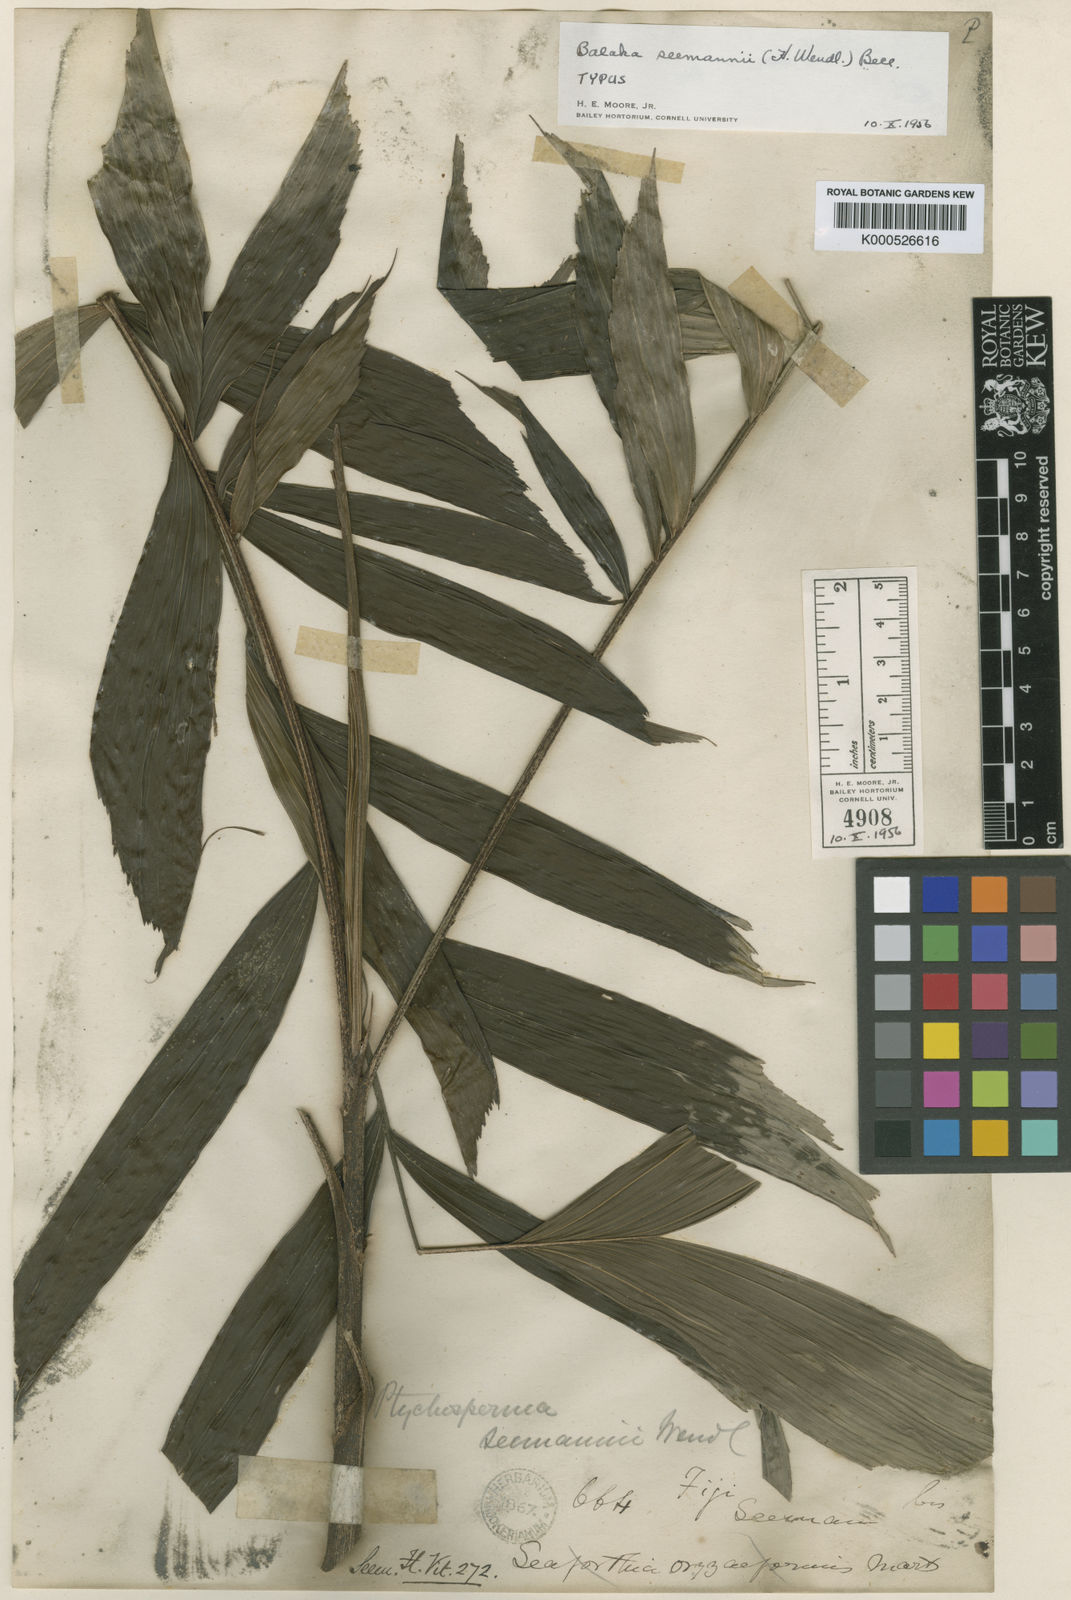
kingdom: Plantae
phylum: Tracheophyta
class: Liliopsida
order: Arecales
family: Arecaceae
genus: Balaka
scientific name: Balaka samoensis
